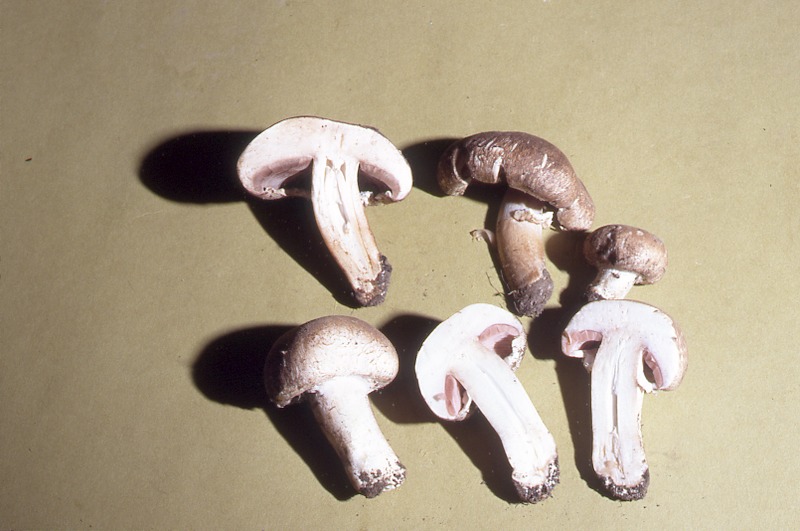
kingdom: Fungi
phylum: Basidiomycota
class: Agaricomycetes
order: Agaricales
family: Agaricaceae
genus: Agaricus
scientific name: Agaricus bisporus
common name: Cultivated mushroom
